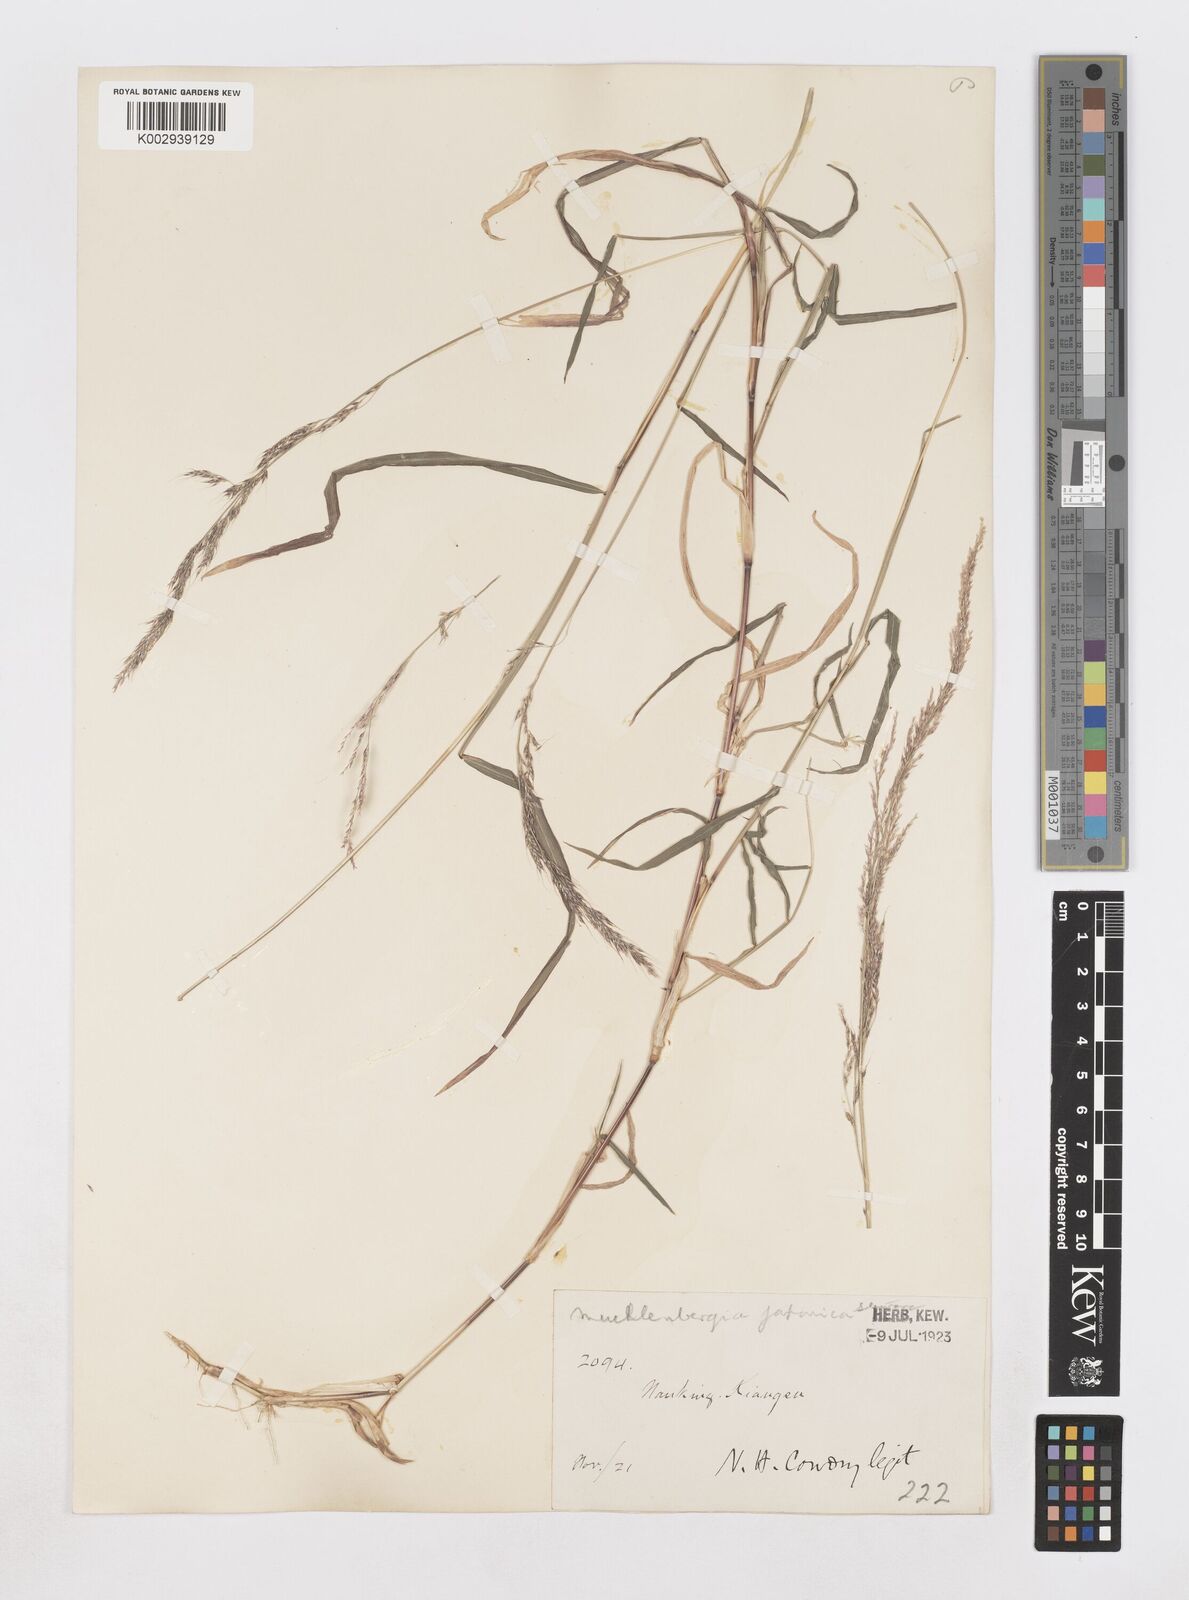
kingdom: Plantae
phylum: Tracheophyta
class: Liliopsida
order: Poales
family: Poaceae
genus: Muhlenbergia
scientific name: Muhlenbergia japonica
